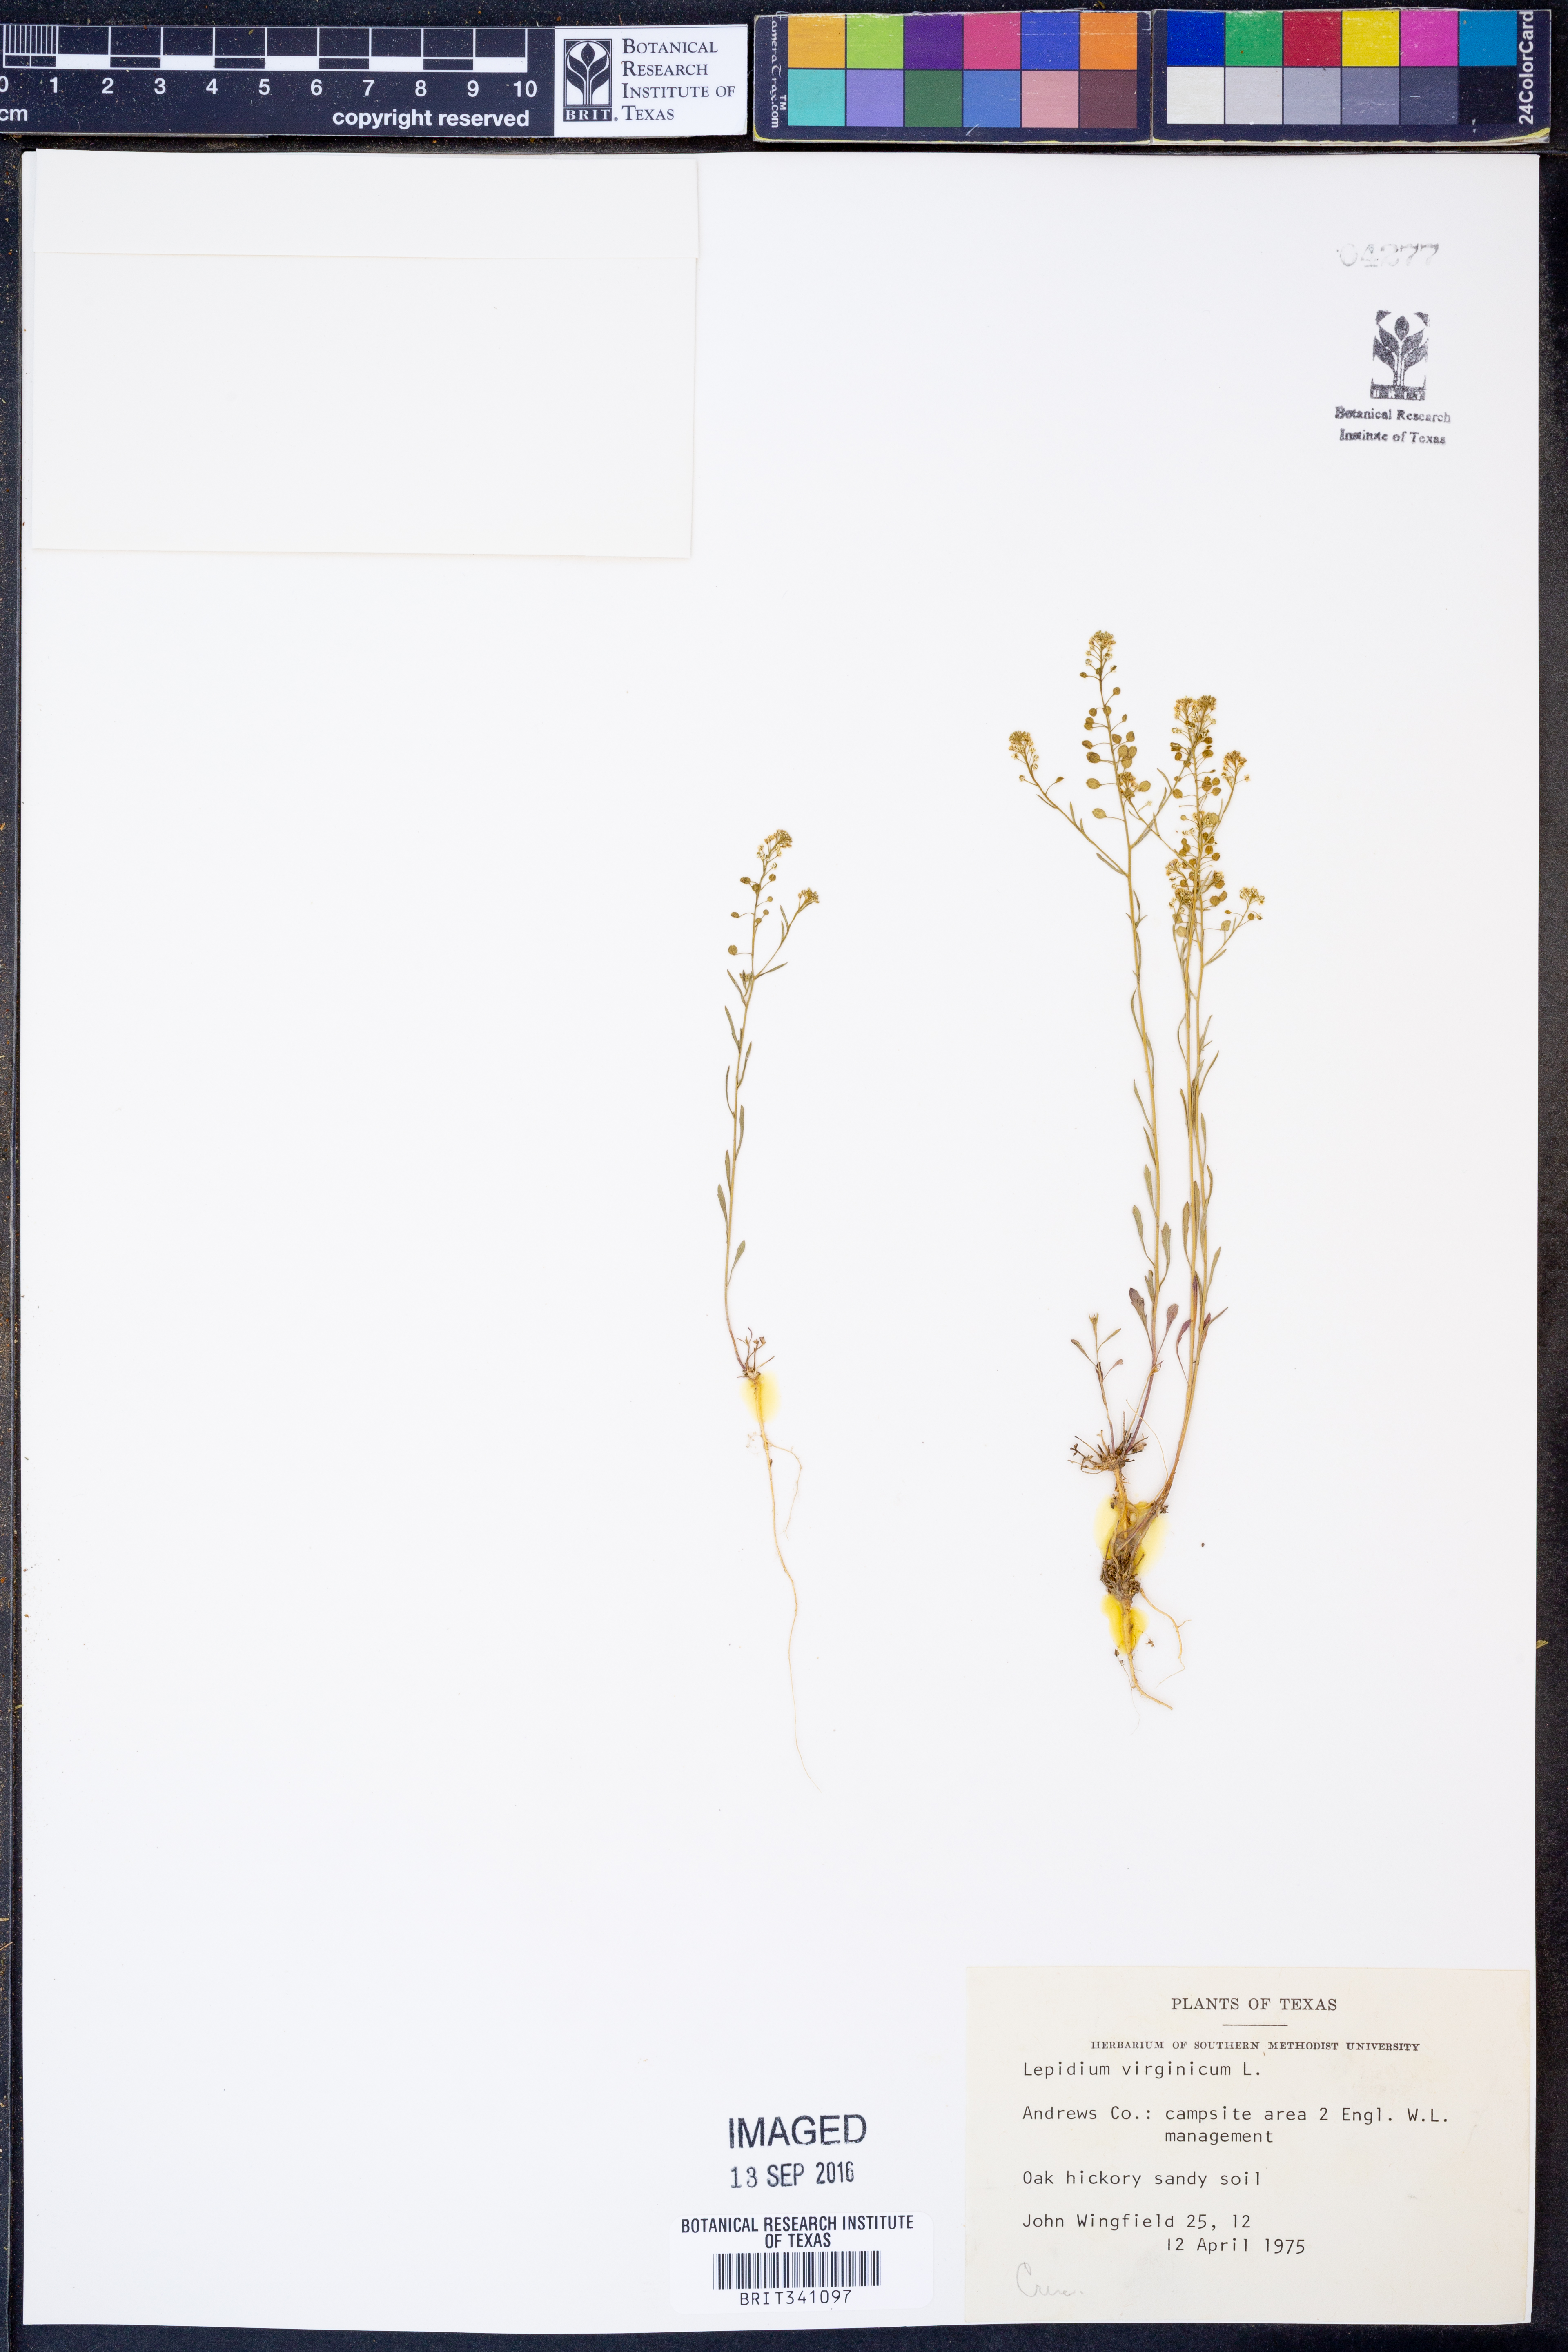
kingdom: Plantae
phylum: Tracheophyta
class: Magnoliopsida
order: Brassicales
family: Brassicaceae
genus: Lepidium
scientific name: Lepidium virginicum
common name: Least pepperwort
